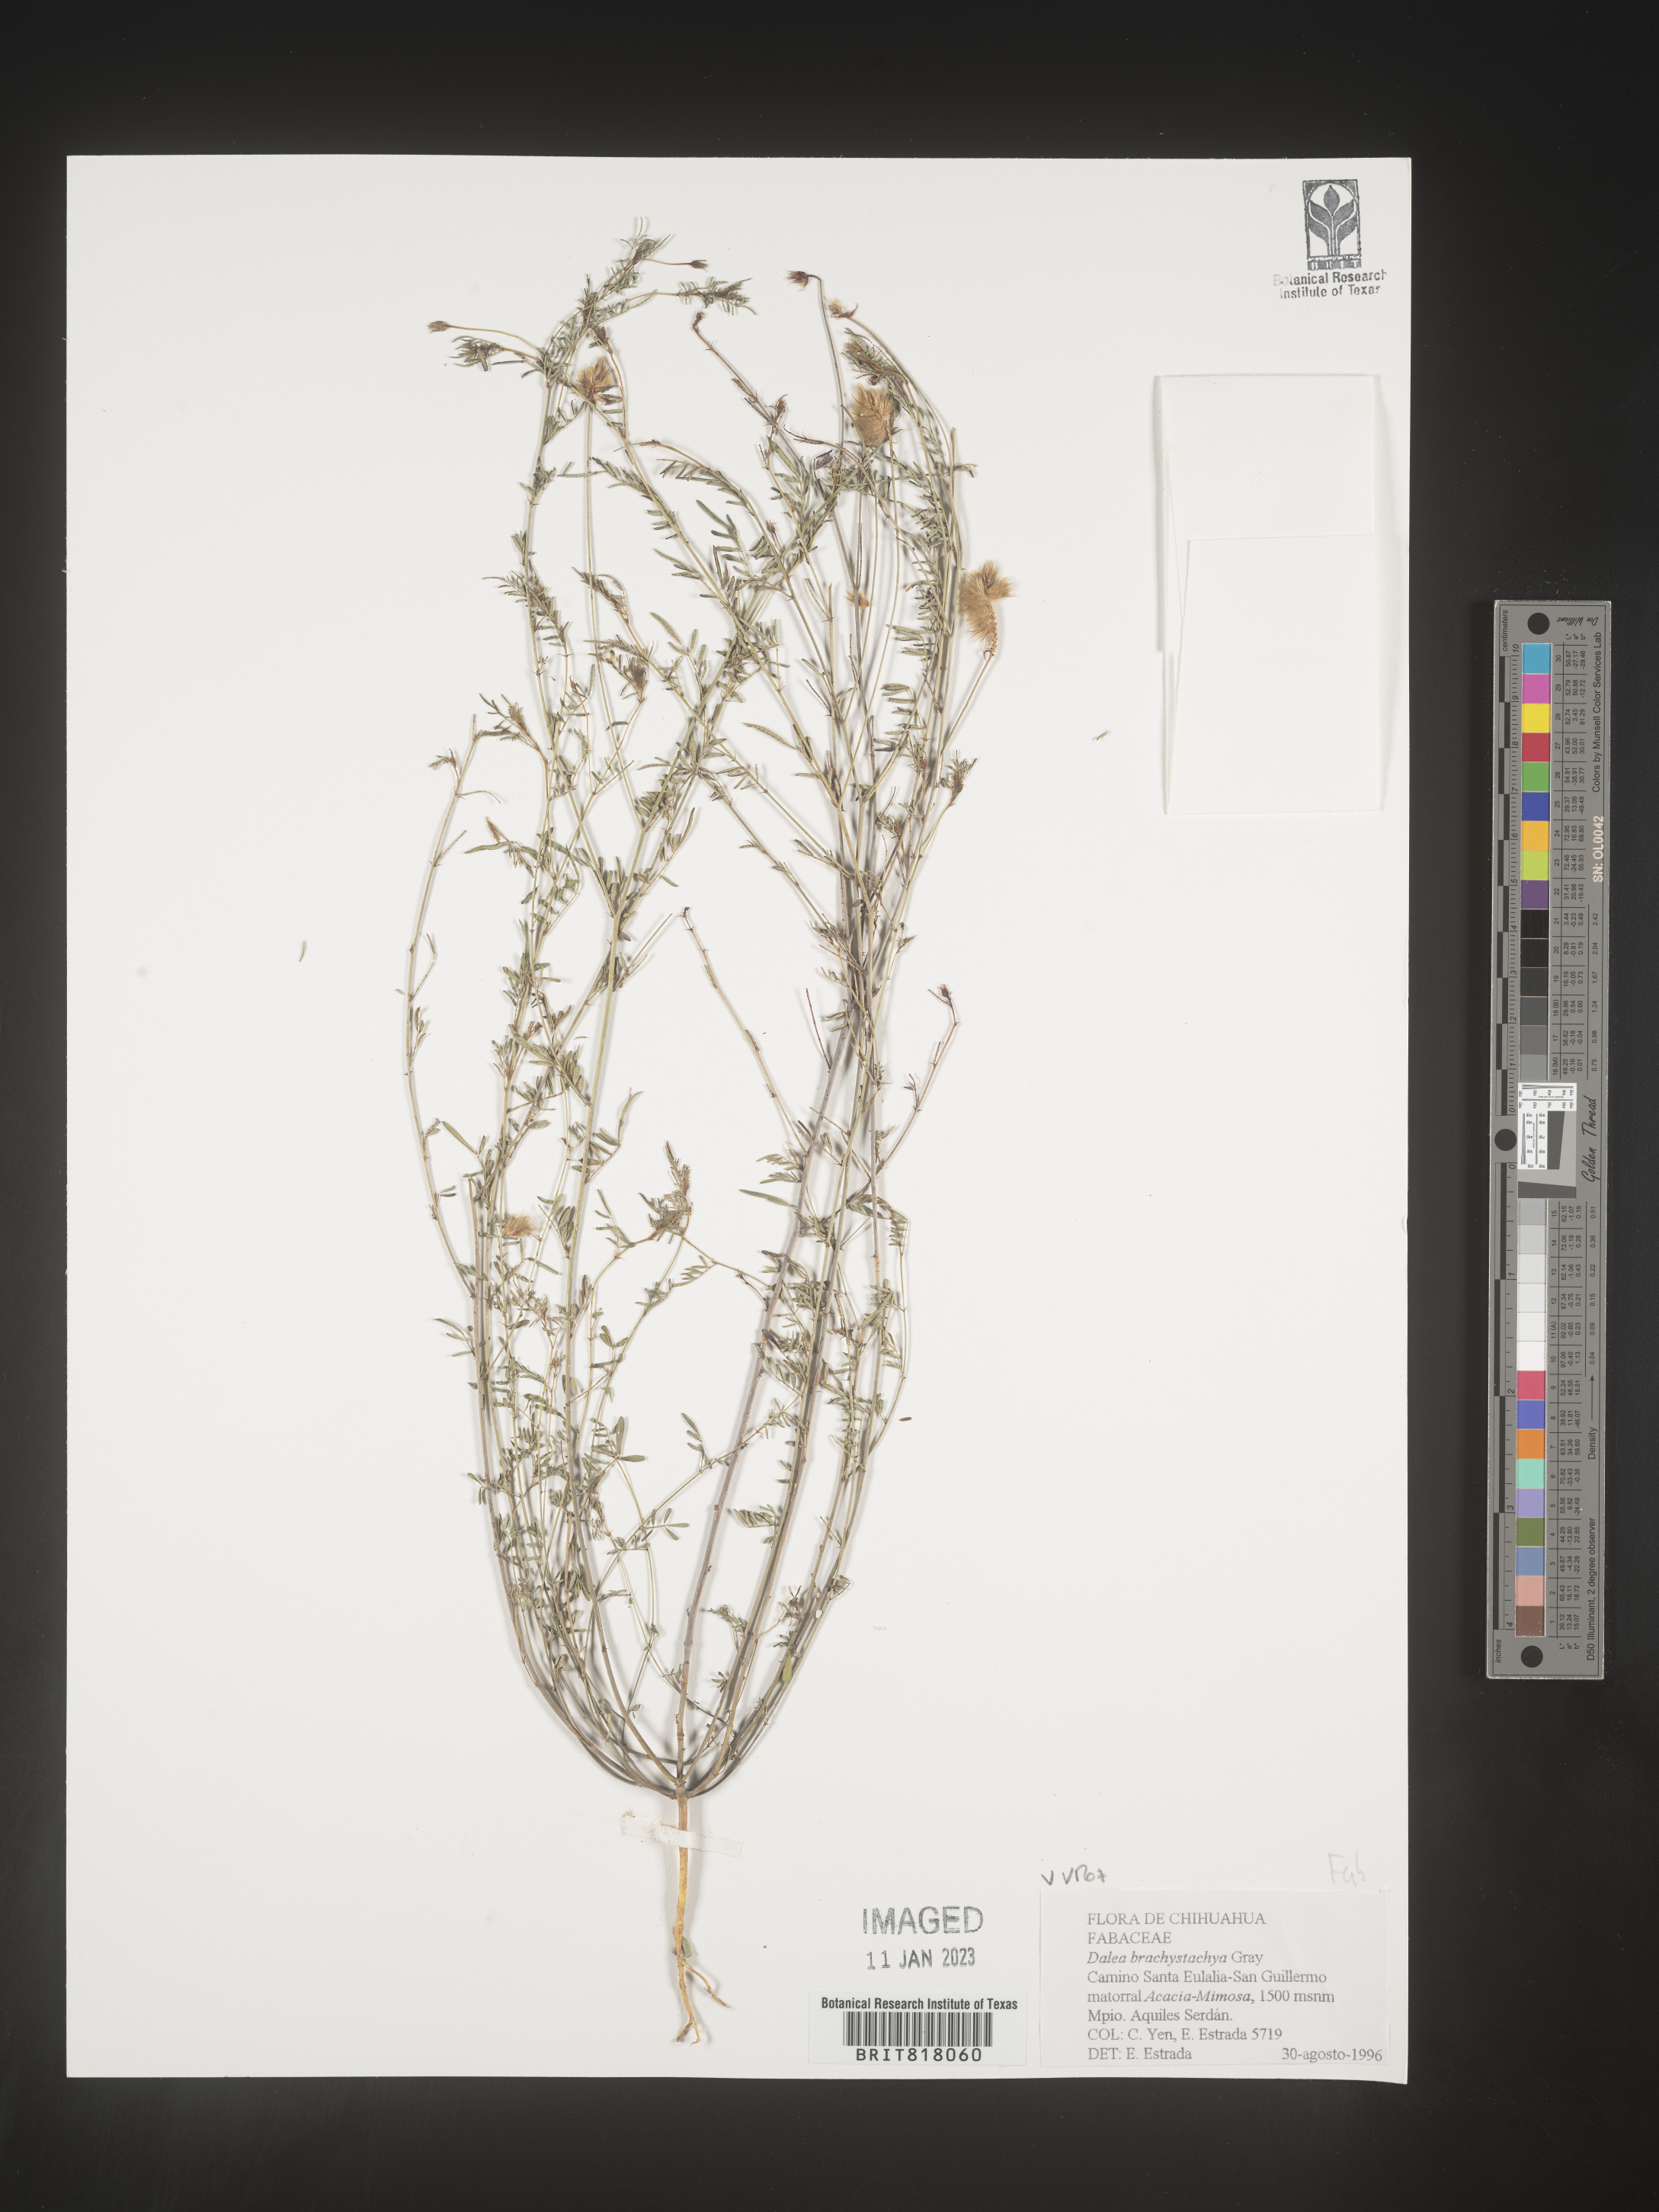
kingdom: Plantae
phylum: Tracheophyta
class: Magnoliopsida
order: Fabales
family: Fabaceae
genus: Dalea
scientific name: Dalea
